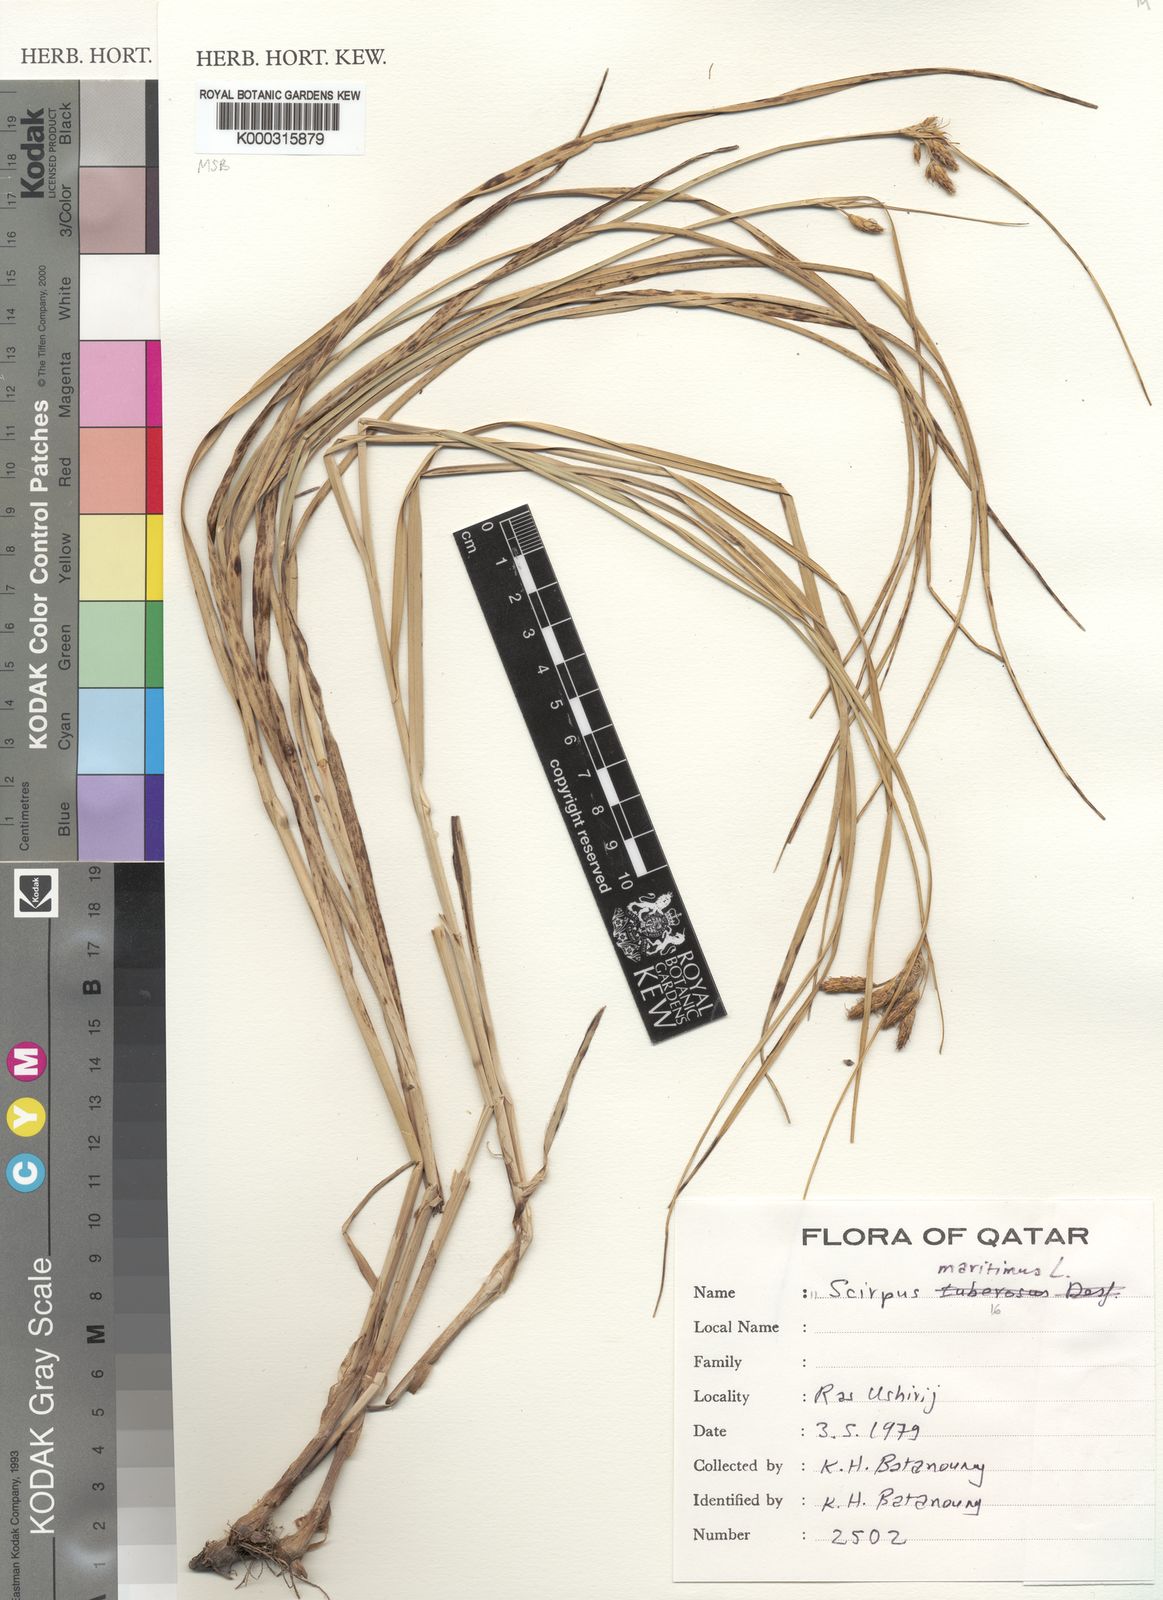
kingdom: Plantae
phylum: Tracheophyta
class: Liliopsida
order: Poales
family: Cyperaceae
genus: Bolboschoenus
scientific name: Bolboschoenus maritimus
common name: Sea club-rush
